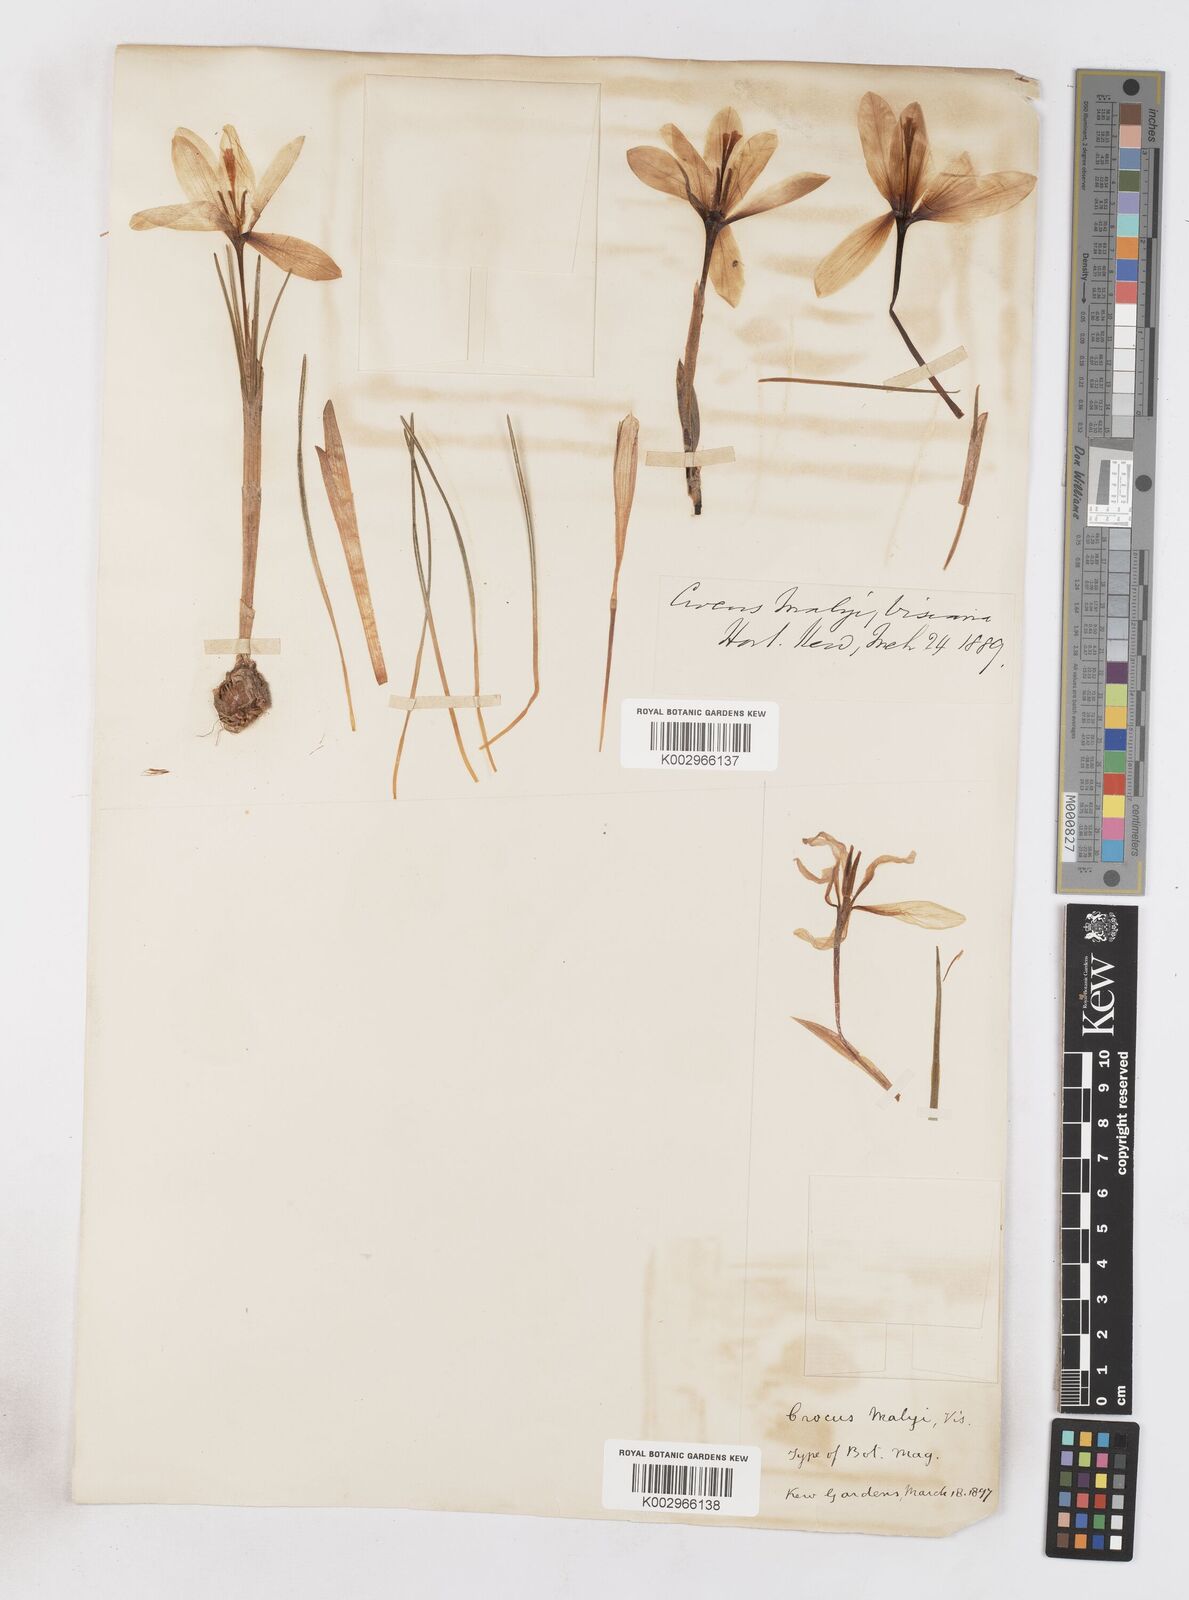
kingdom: Plantae
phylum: Tracheophyta
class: Liliopsida
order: Asparagales
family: Iridaceae
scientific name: Iridaceae
